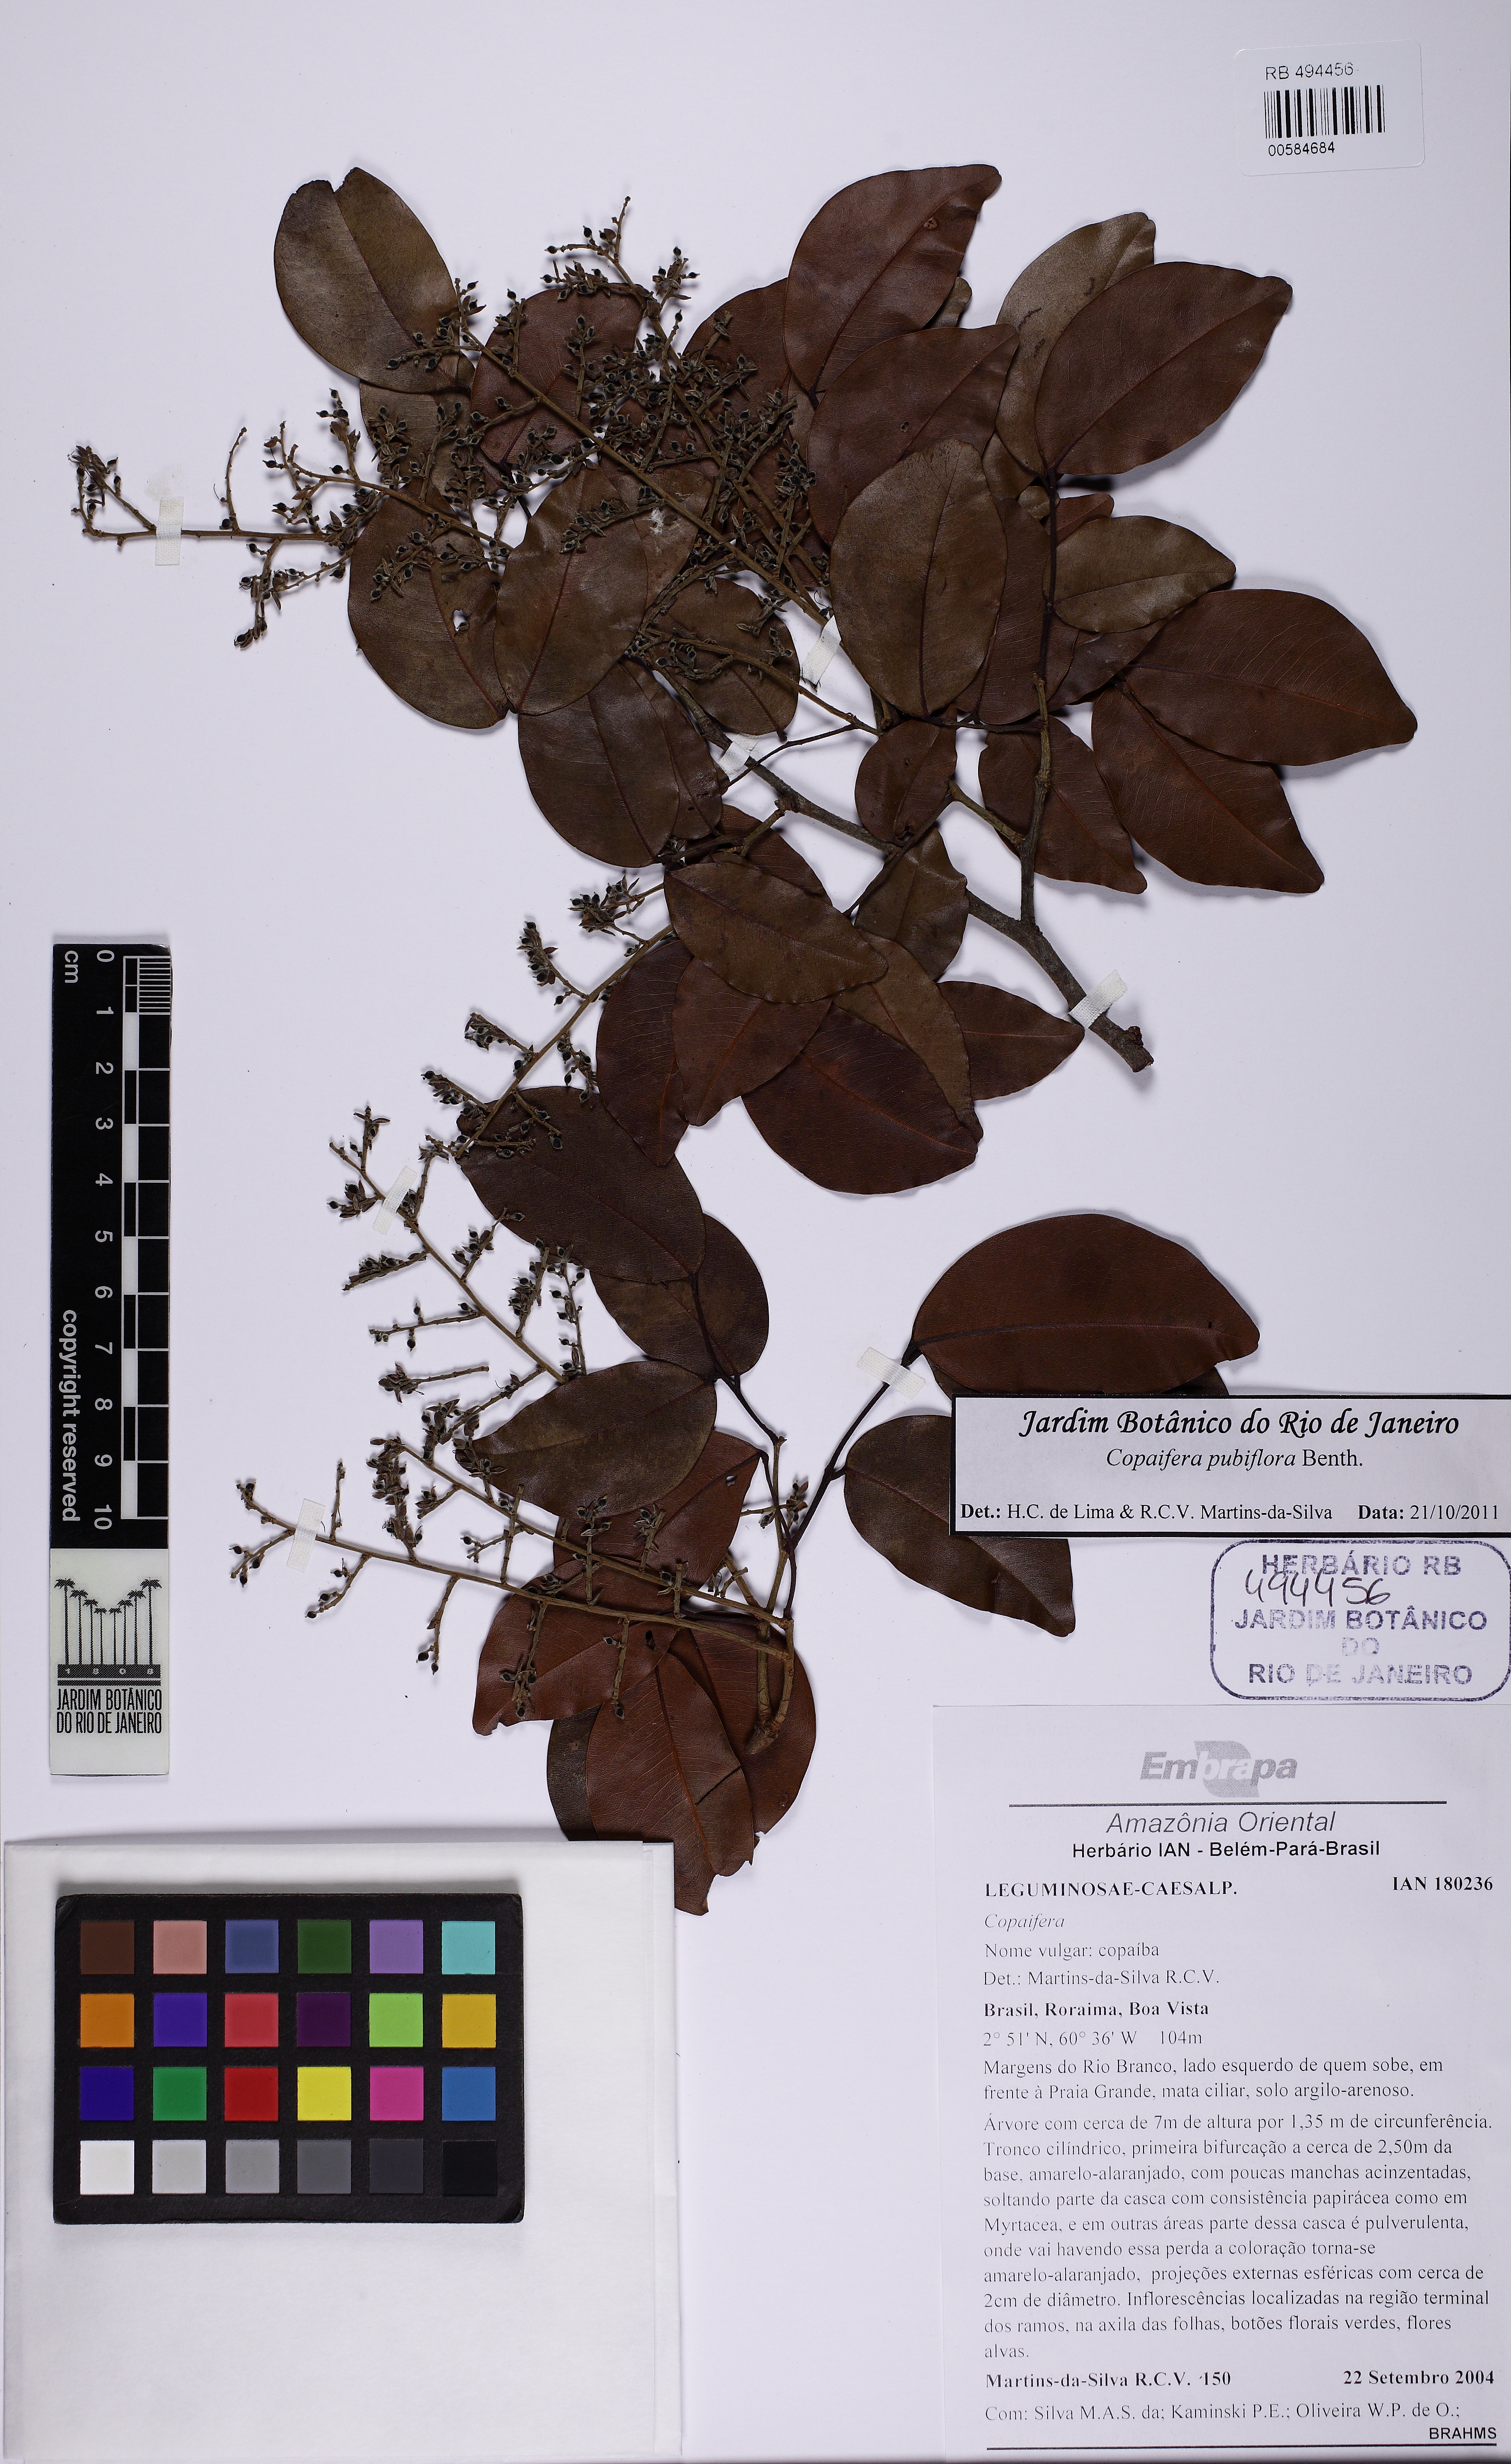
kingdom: Plantae
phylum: Tracheophyta
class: Magnoliopsida
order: Fabales
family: Fabaceae
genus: Copaifera
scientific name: Copaifera pubiflora
